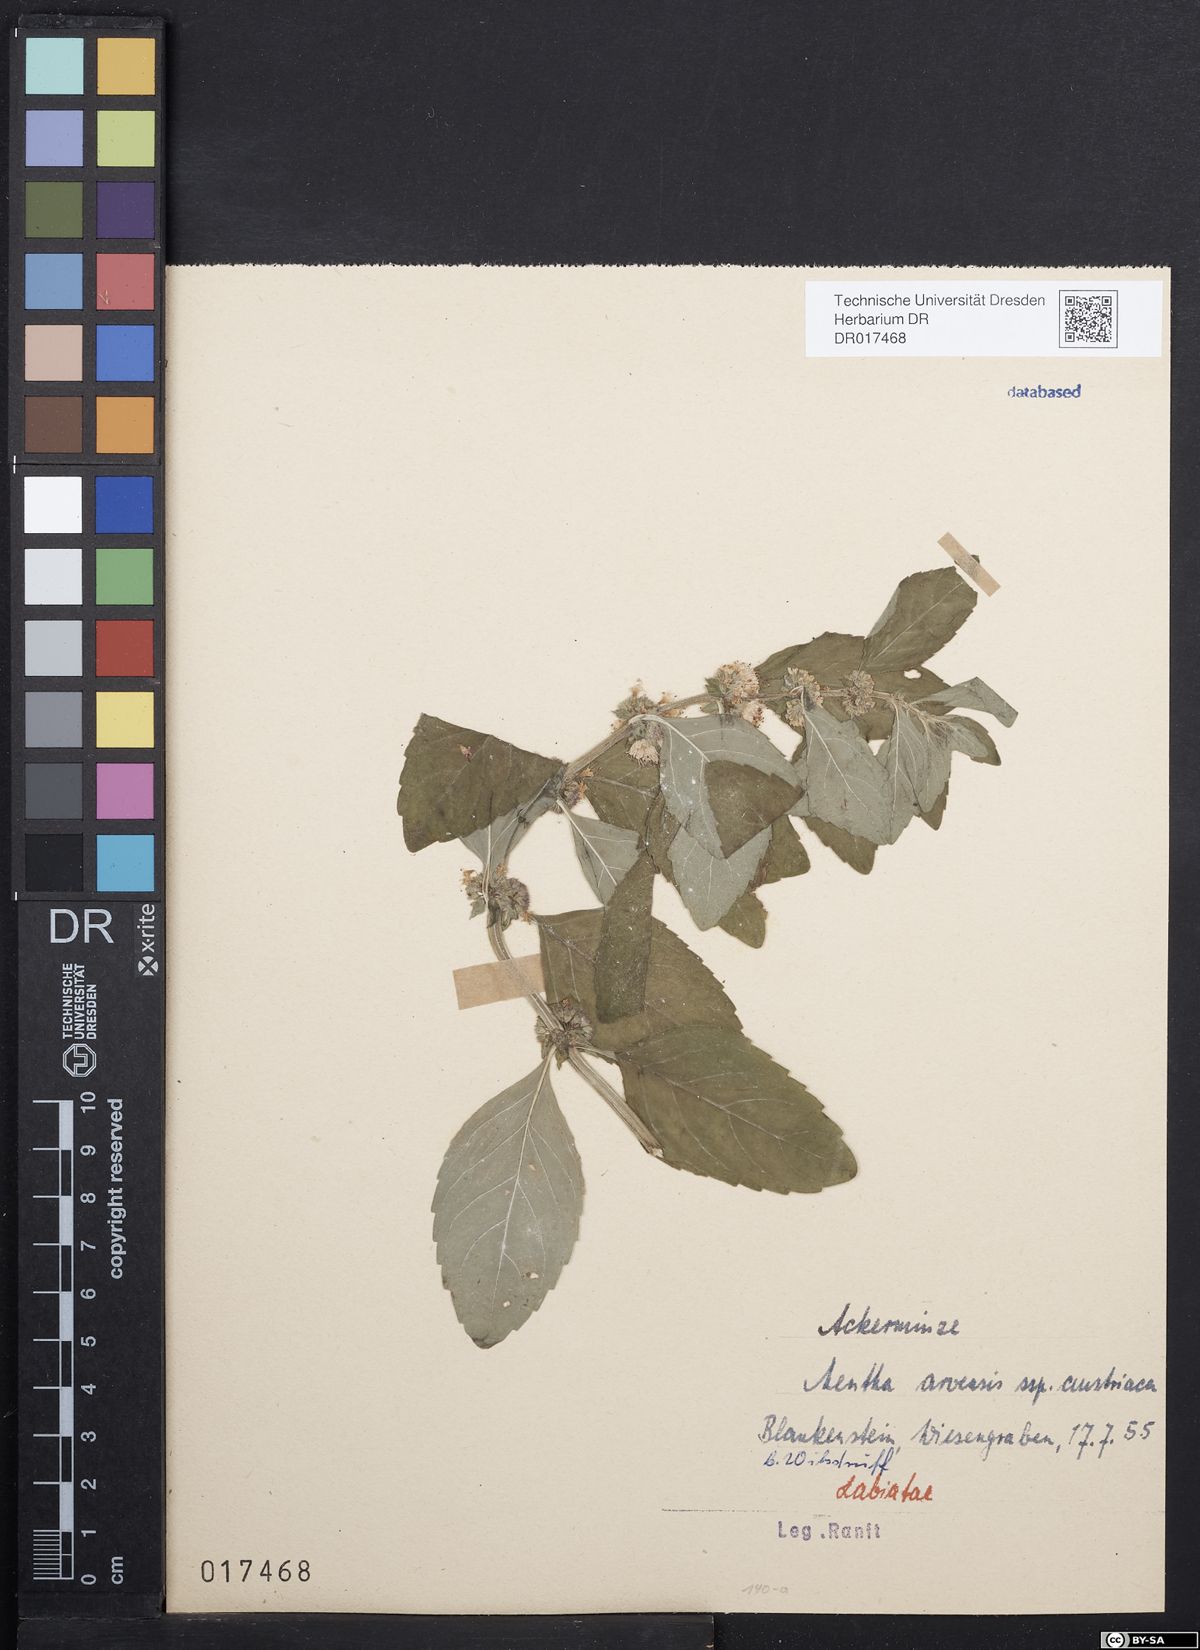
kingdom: Plantae
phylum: Tracheophyta
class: Magnoliopsida
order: Lamiales
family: Lamiaceae
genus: Mentha
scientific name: Mentha arvensis
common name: Corn mint
